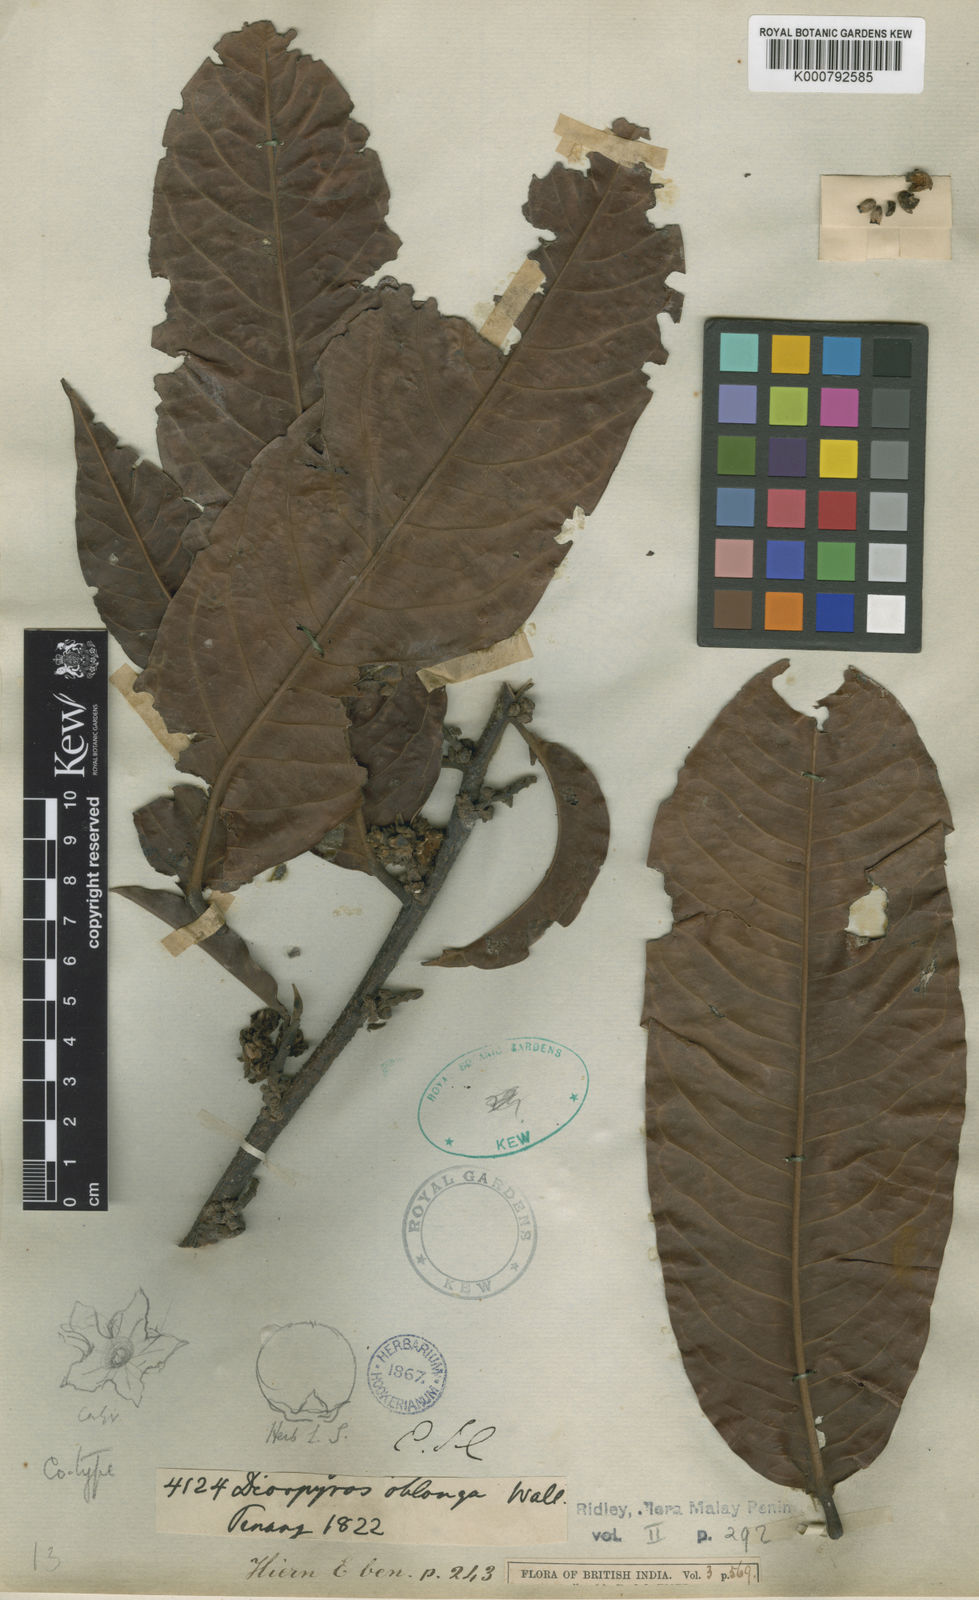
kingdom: Plantae
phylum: Tracheophyta
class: Magnoliopsida
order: Ericales
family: Ebenaceae
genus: Diospyros
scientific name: Diospyros oblonga
